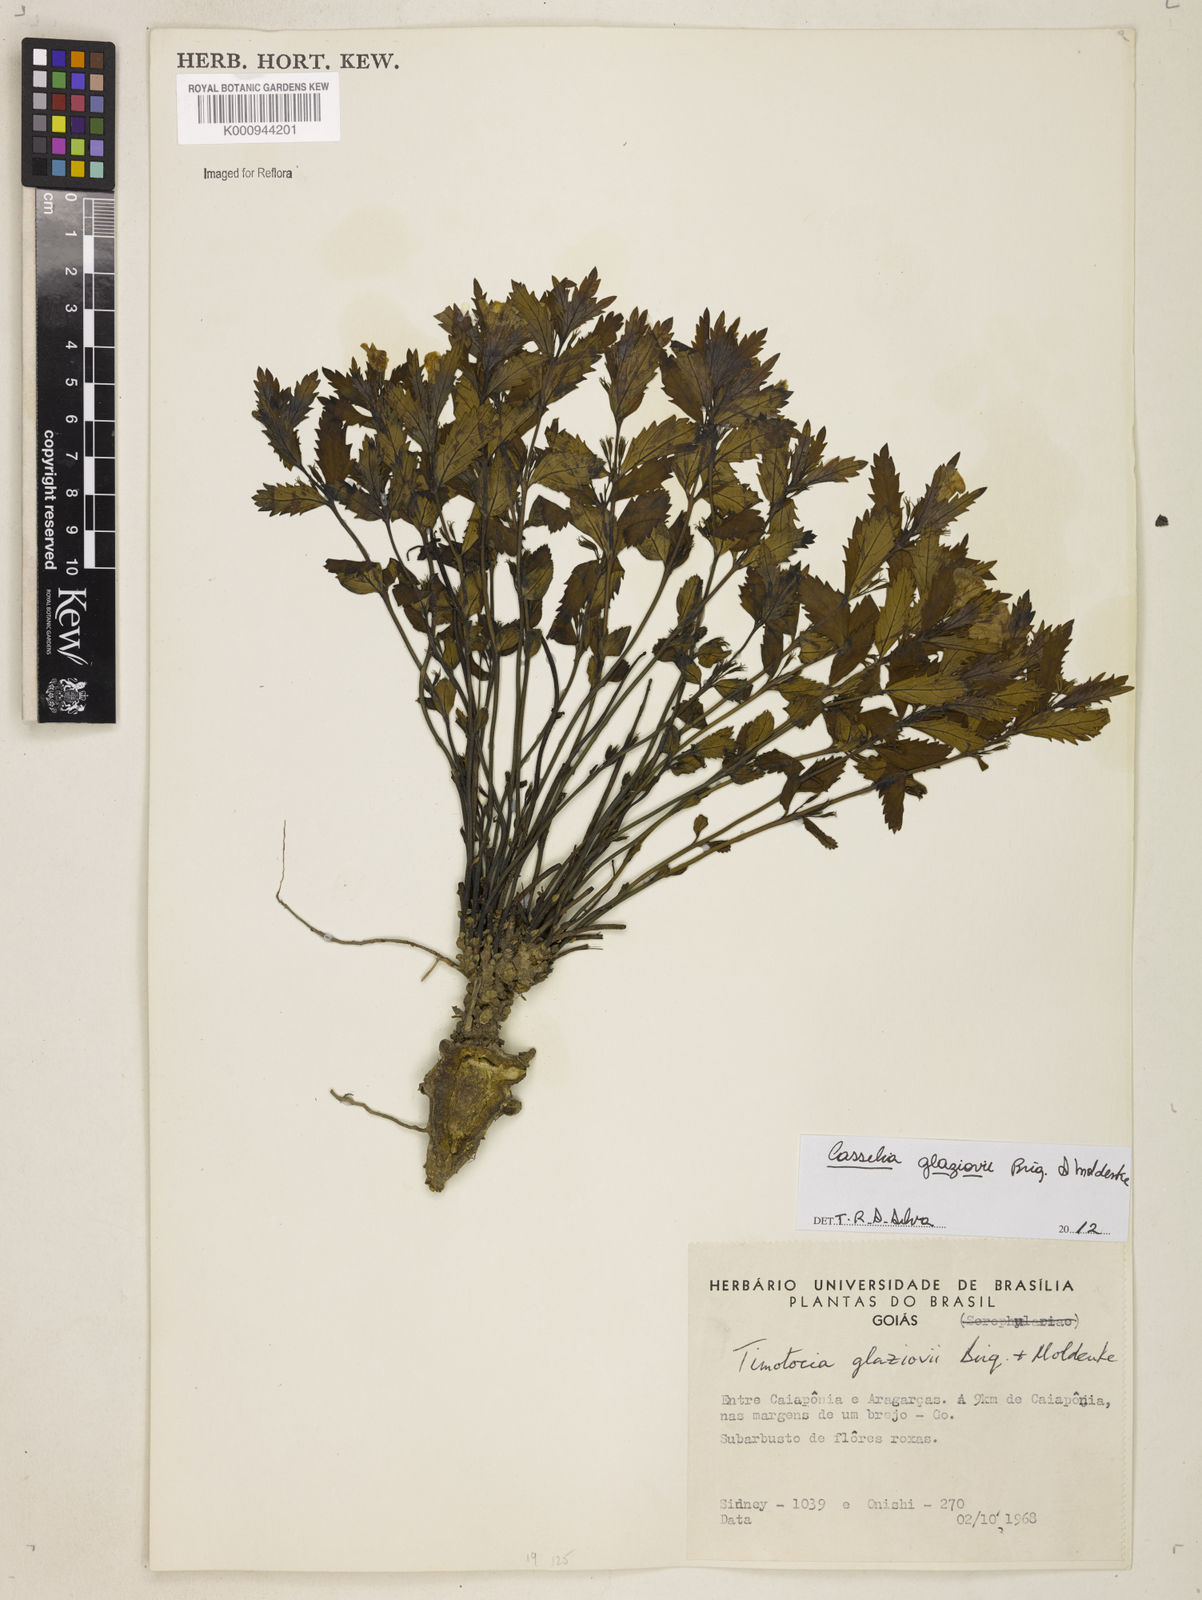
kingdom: Plantae
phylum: Tracheophyta
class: Magnoliopsida
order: Lamiales
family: Verbenaceae
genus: Casselia
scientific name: Casselia glaziovii
